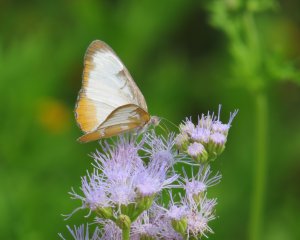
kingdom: Animalia
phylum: Arthropoda
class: Insecta
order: Lepidoptera
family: Nymphalidae
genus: Mestra
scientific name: Mestra amymone
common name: Common Mestra
